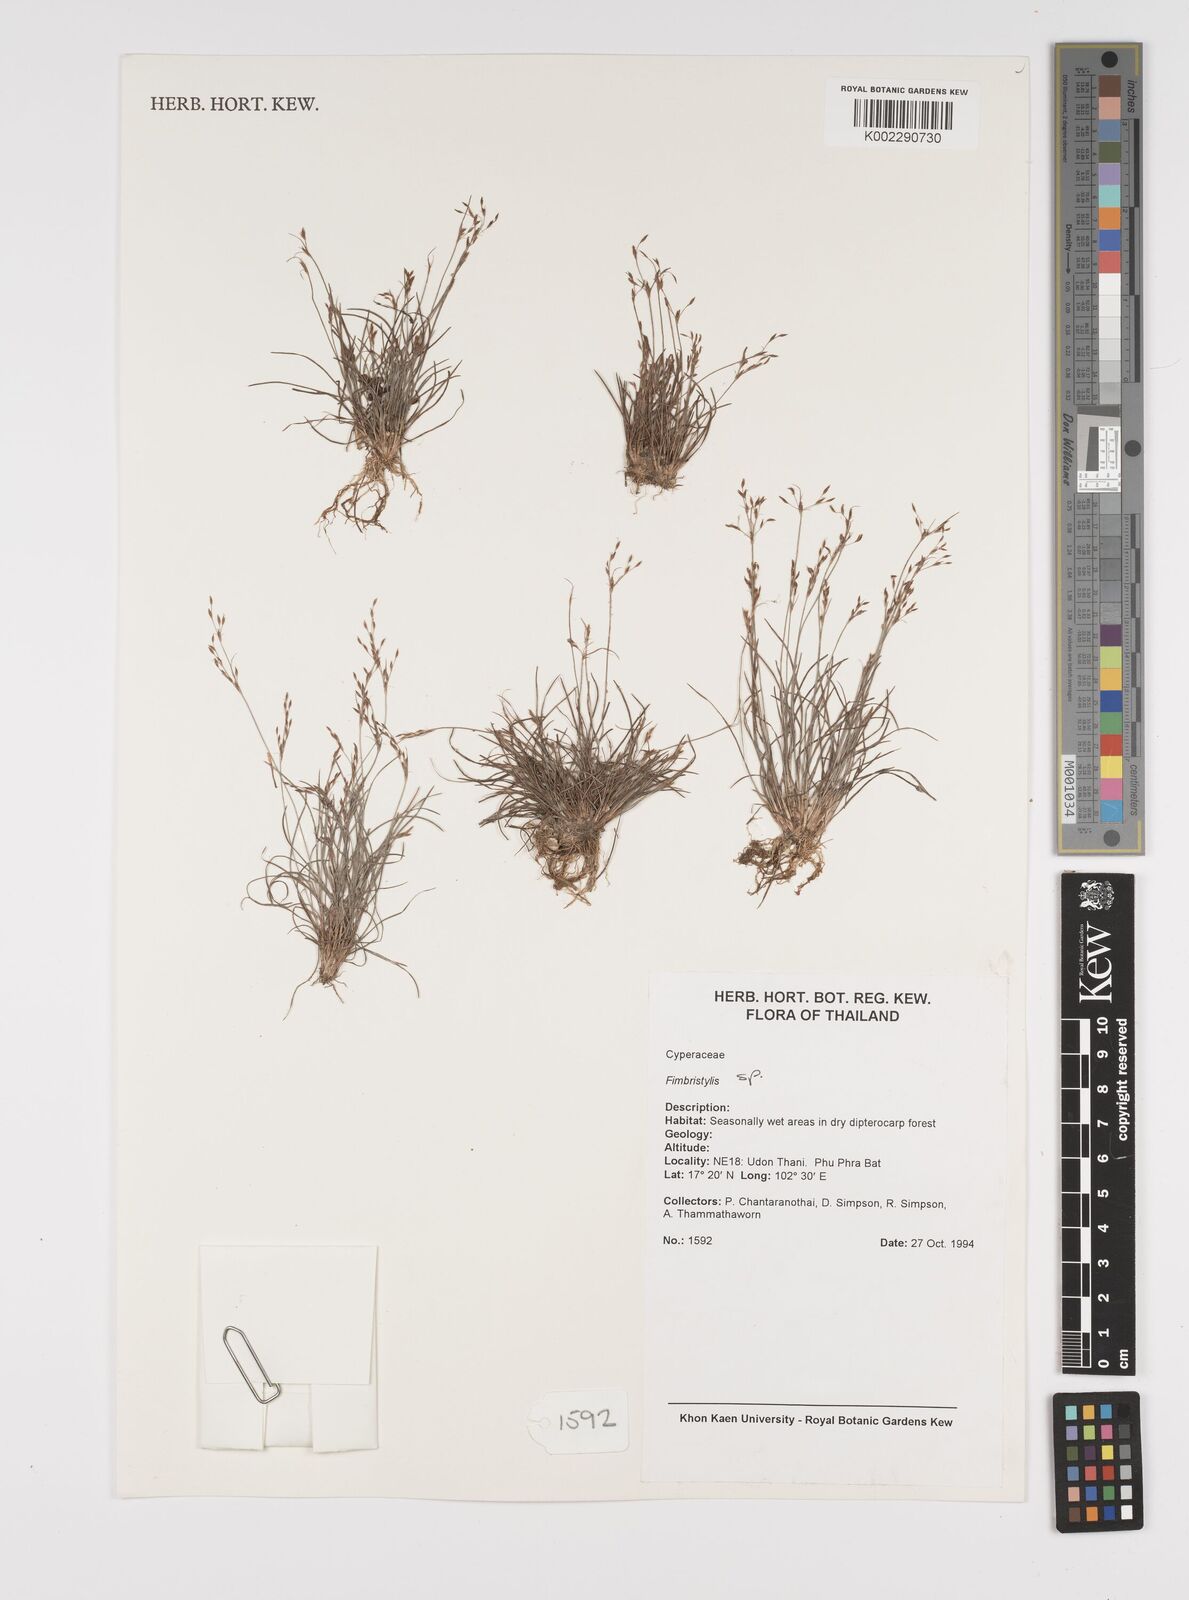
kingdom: Plantae
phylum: Tracheophyta
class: Liliopsida
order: Poales
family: Cyperaceae
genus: Fimbristylis
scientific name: Fimbristylis
